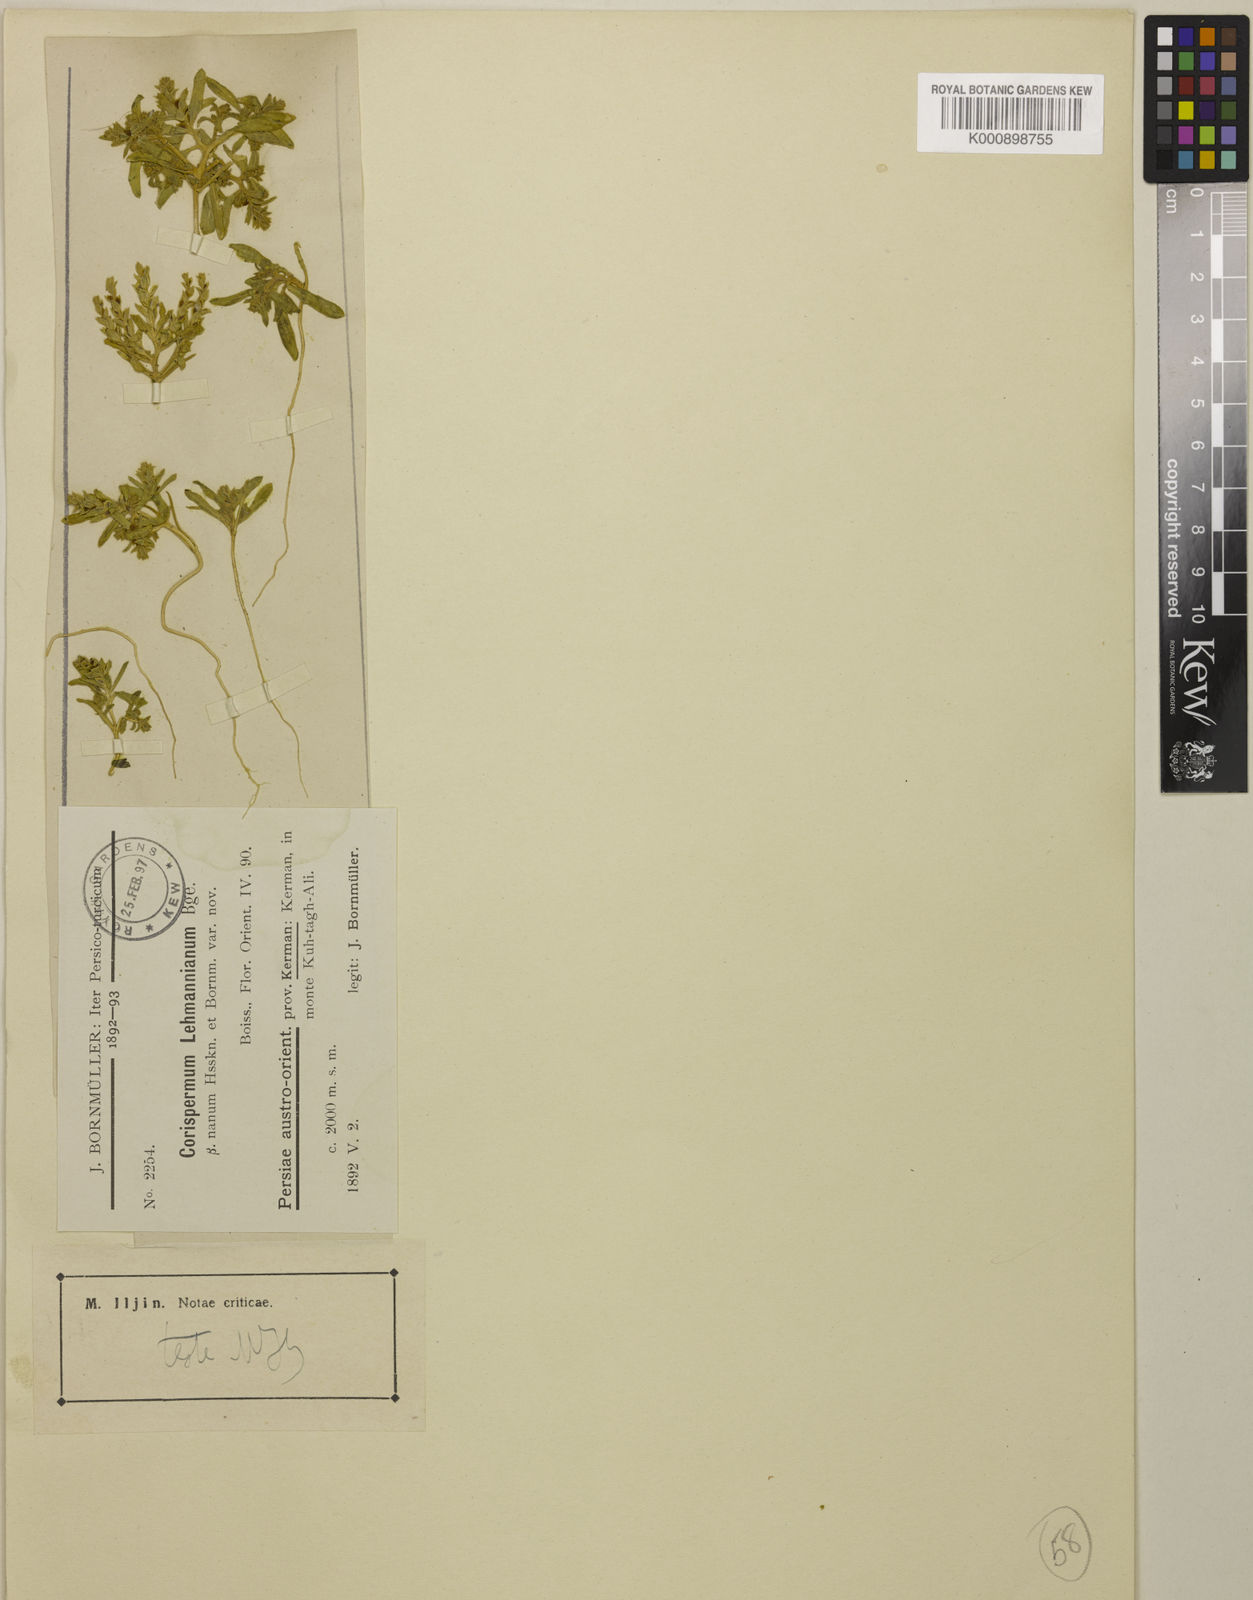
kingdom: Plantae
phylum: Tracheophyta
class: Magnoliopsida
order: Caryophyllales
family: Amaranthaceae
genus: Corispermum
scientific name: Corispermum lehmannianum
